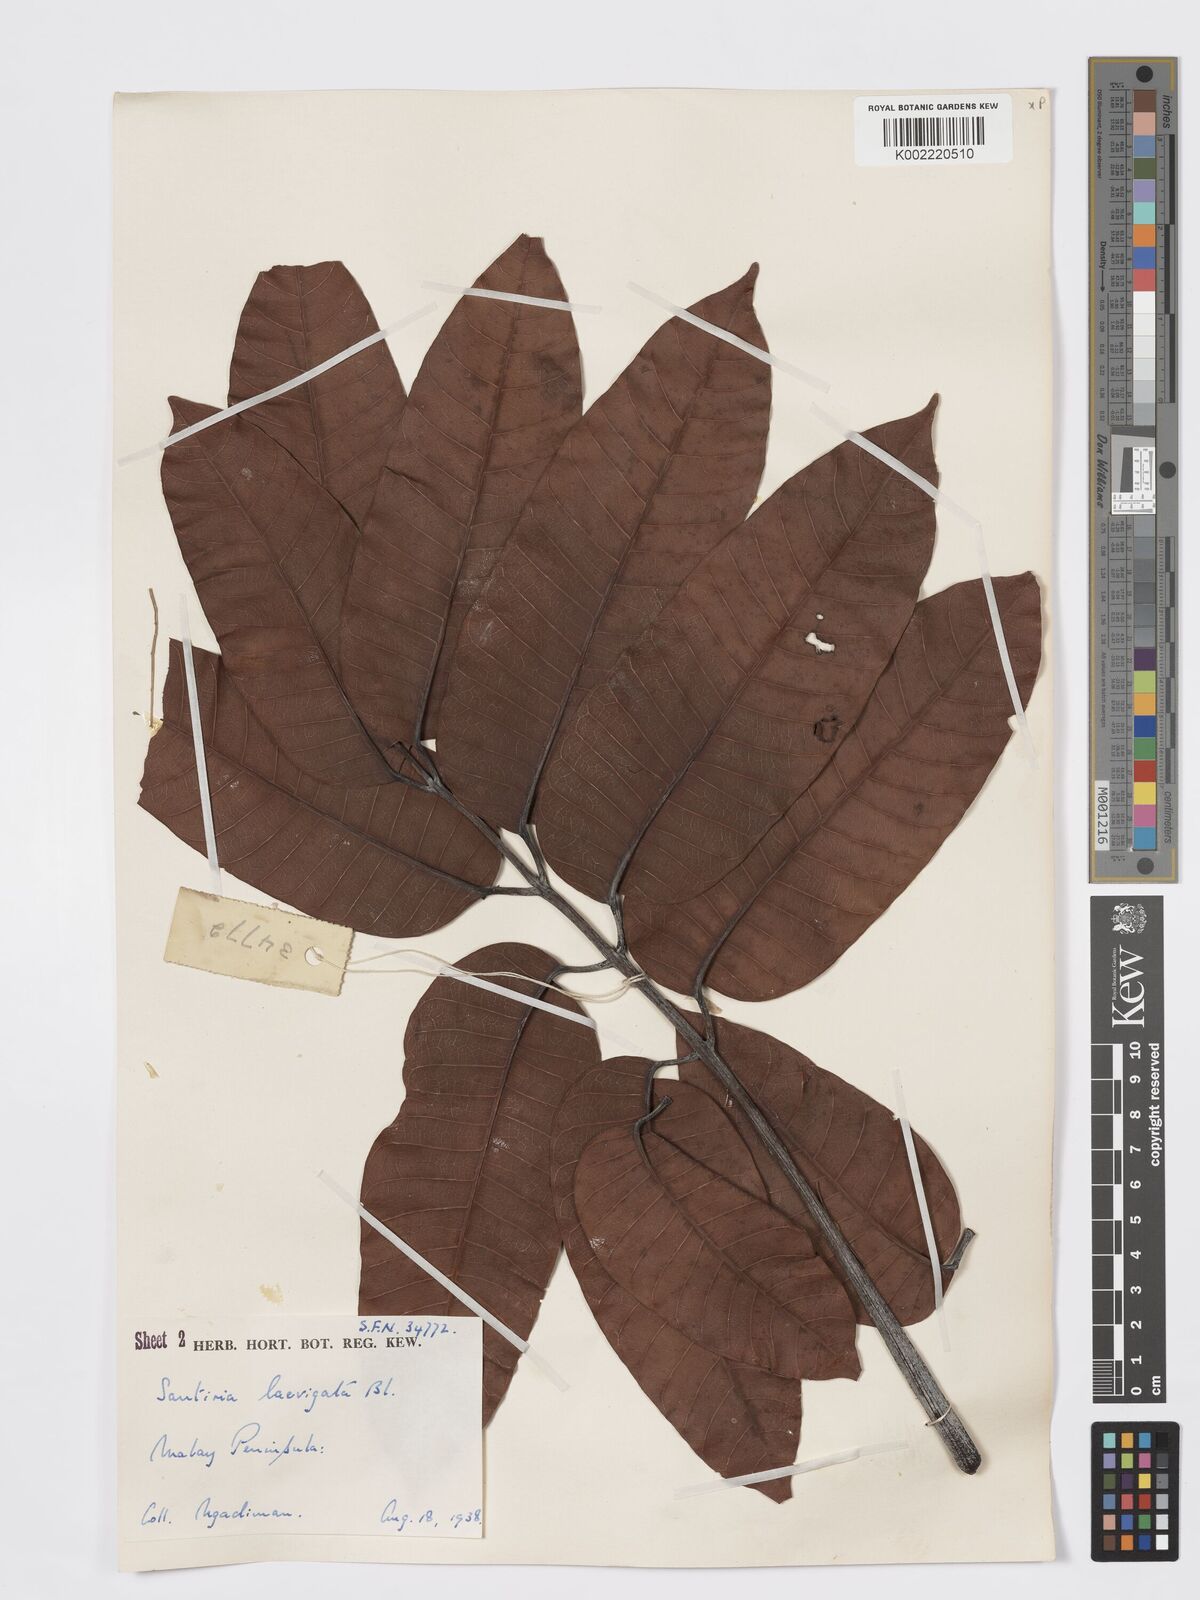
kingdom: Plantae
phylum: Tracheophyta
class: Magnoliopsida
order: Sapindales
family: Burseraceae
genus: Santiria
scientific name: Santiria laevigata
